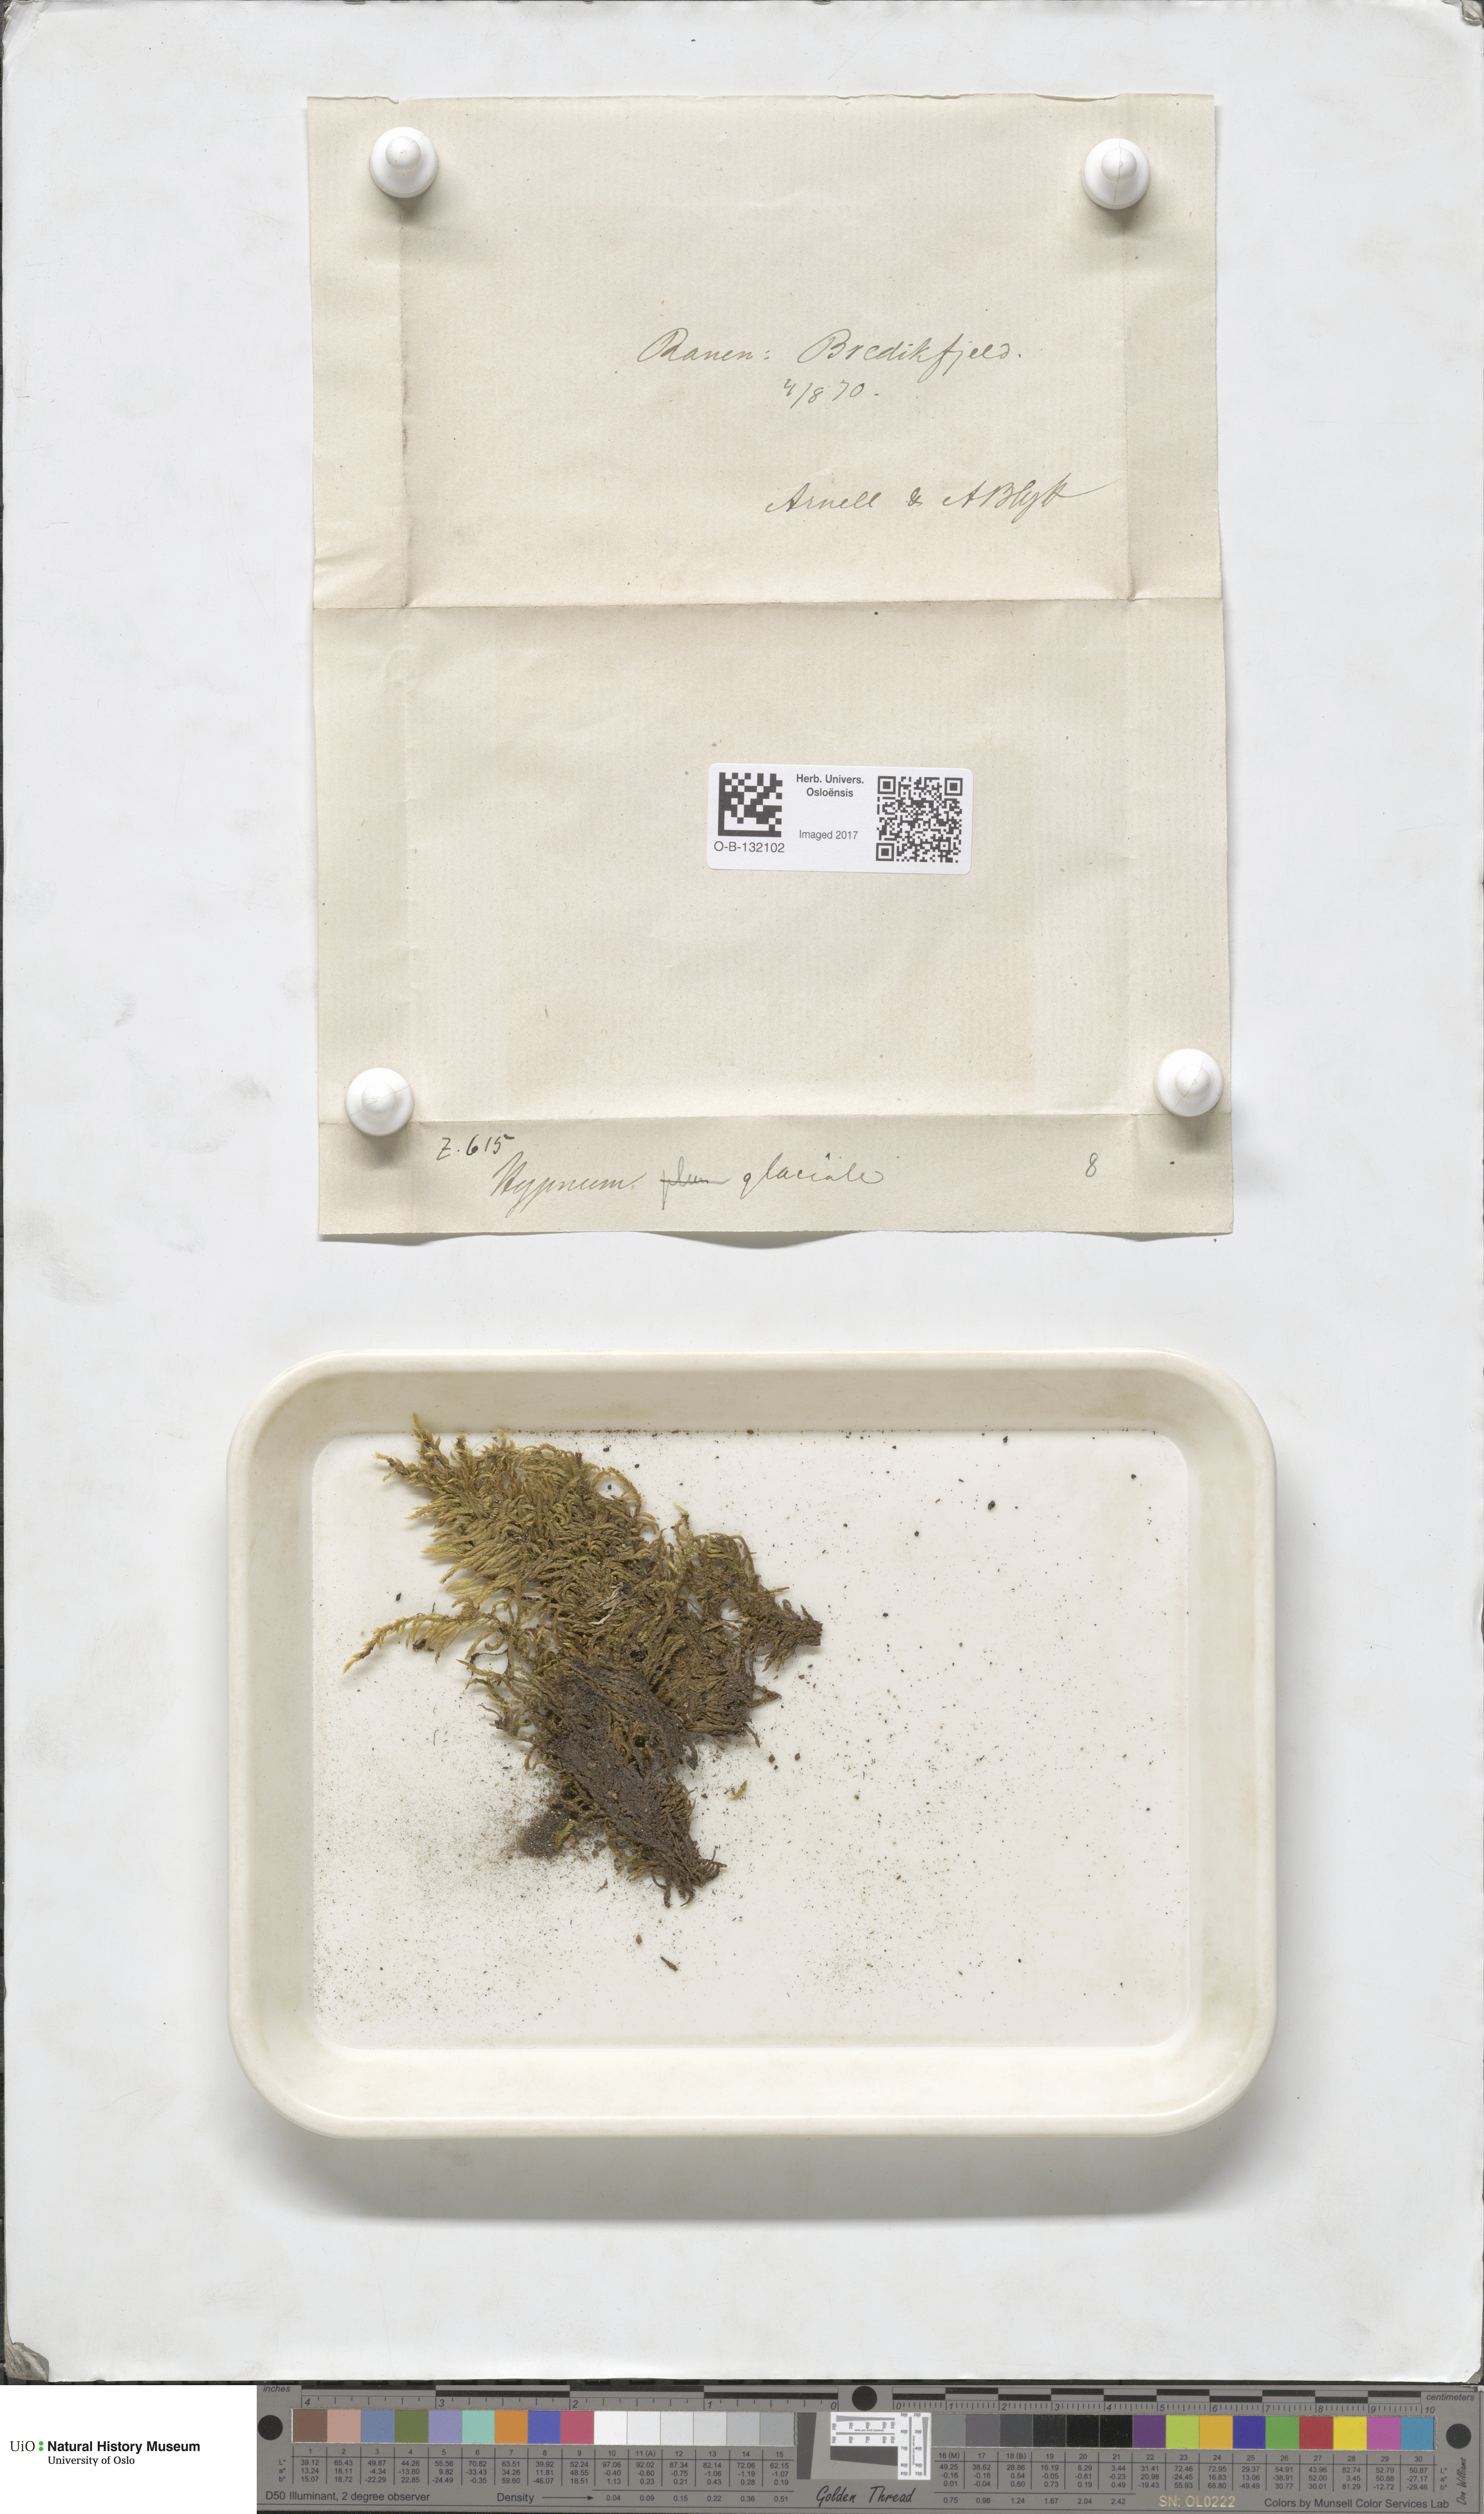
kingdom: Plantae
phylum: Bryophyta
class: Bryopsida
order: Hypnales
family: Brachytheciaceae
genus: Sciuro-hypnum
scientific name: Sciuro-hypnum glaciale
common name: Snow feather-moss
